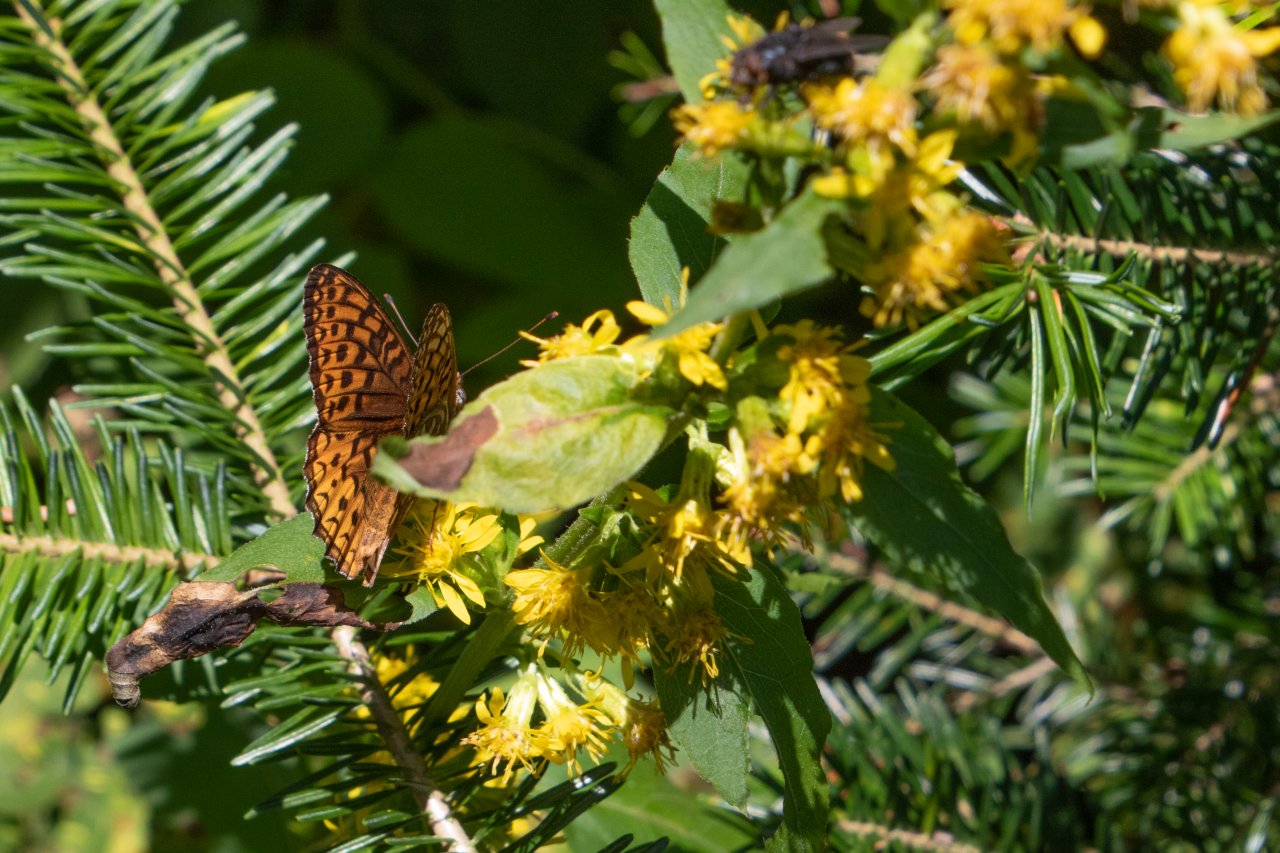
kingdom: Animalia
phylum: Arthropoda
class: Insecta
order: Lepidoptera
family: Nymphalidae
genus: Speyeria
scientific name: Speyeria atlantis
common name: Atlantis Fritillary
